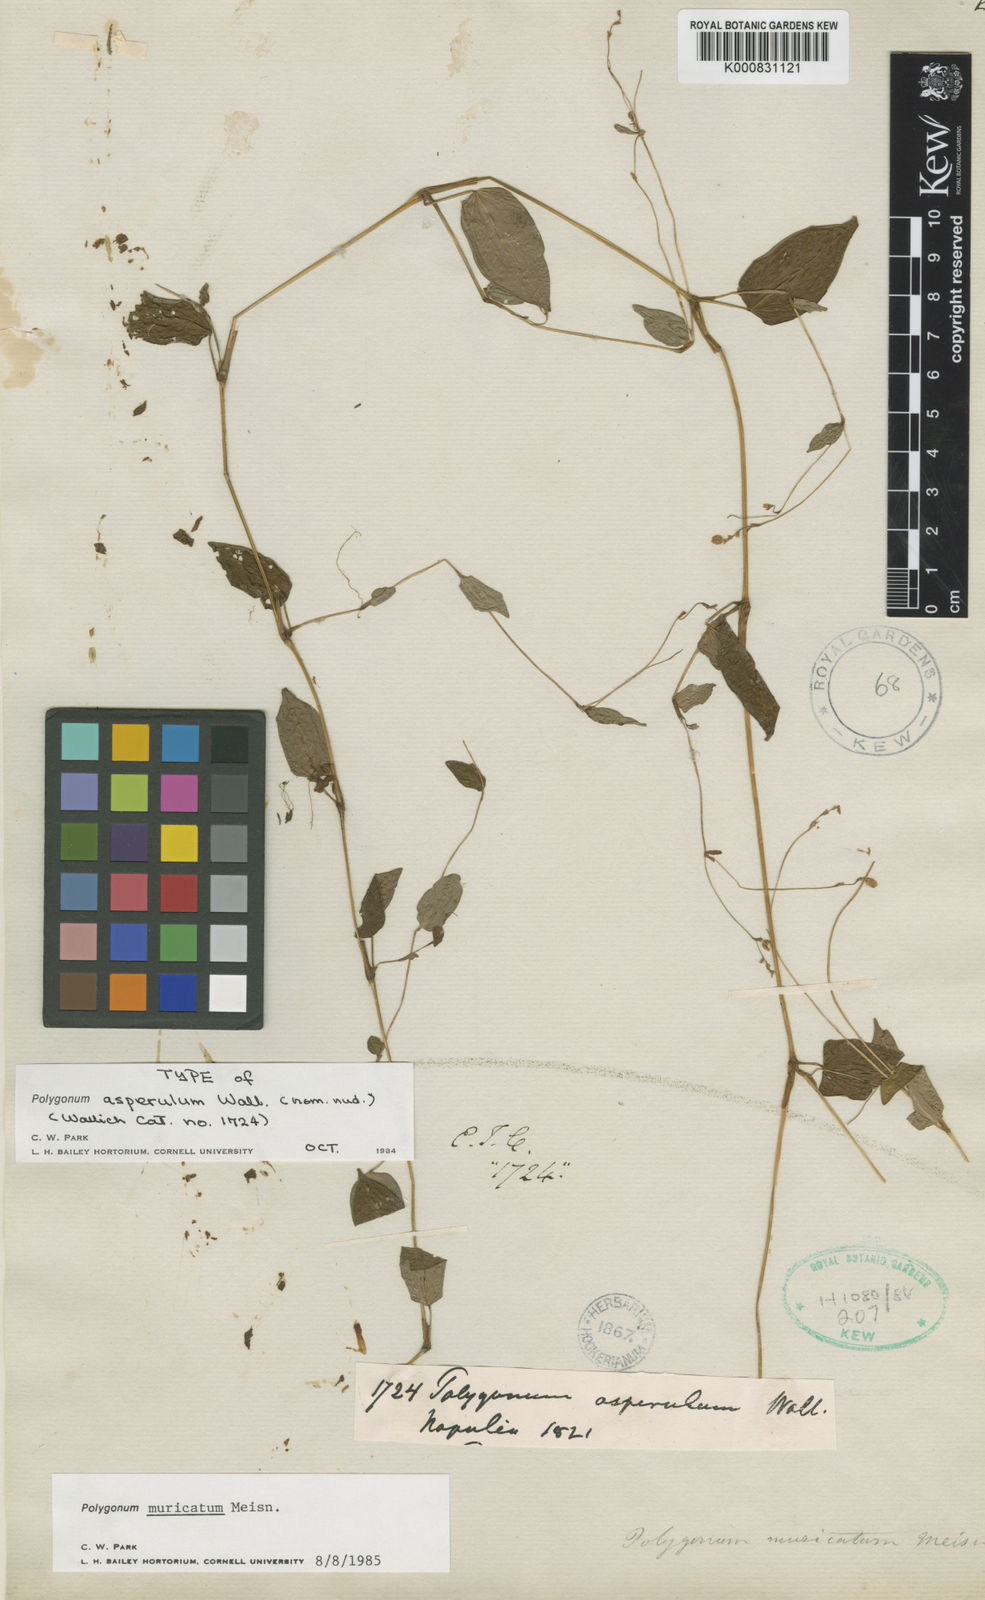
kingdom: Plantae
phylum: Tracheophyta
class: Magnoliopsida
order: Caryophyllales
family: Polygonaceae
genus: Persicaria
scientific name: Persicaria muricata
